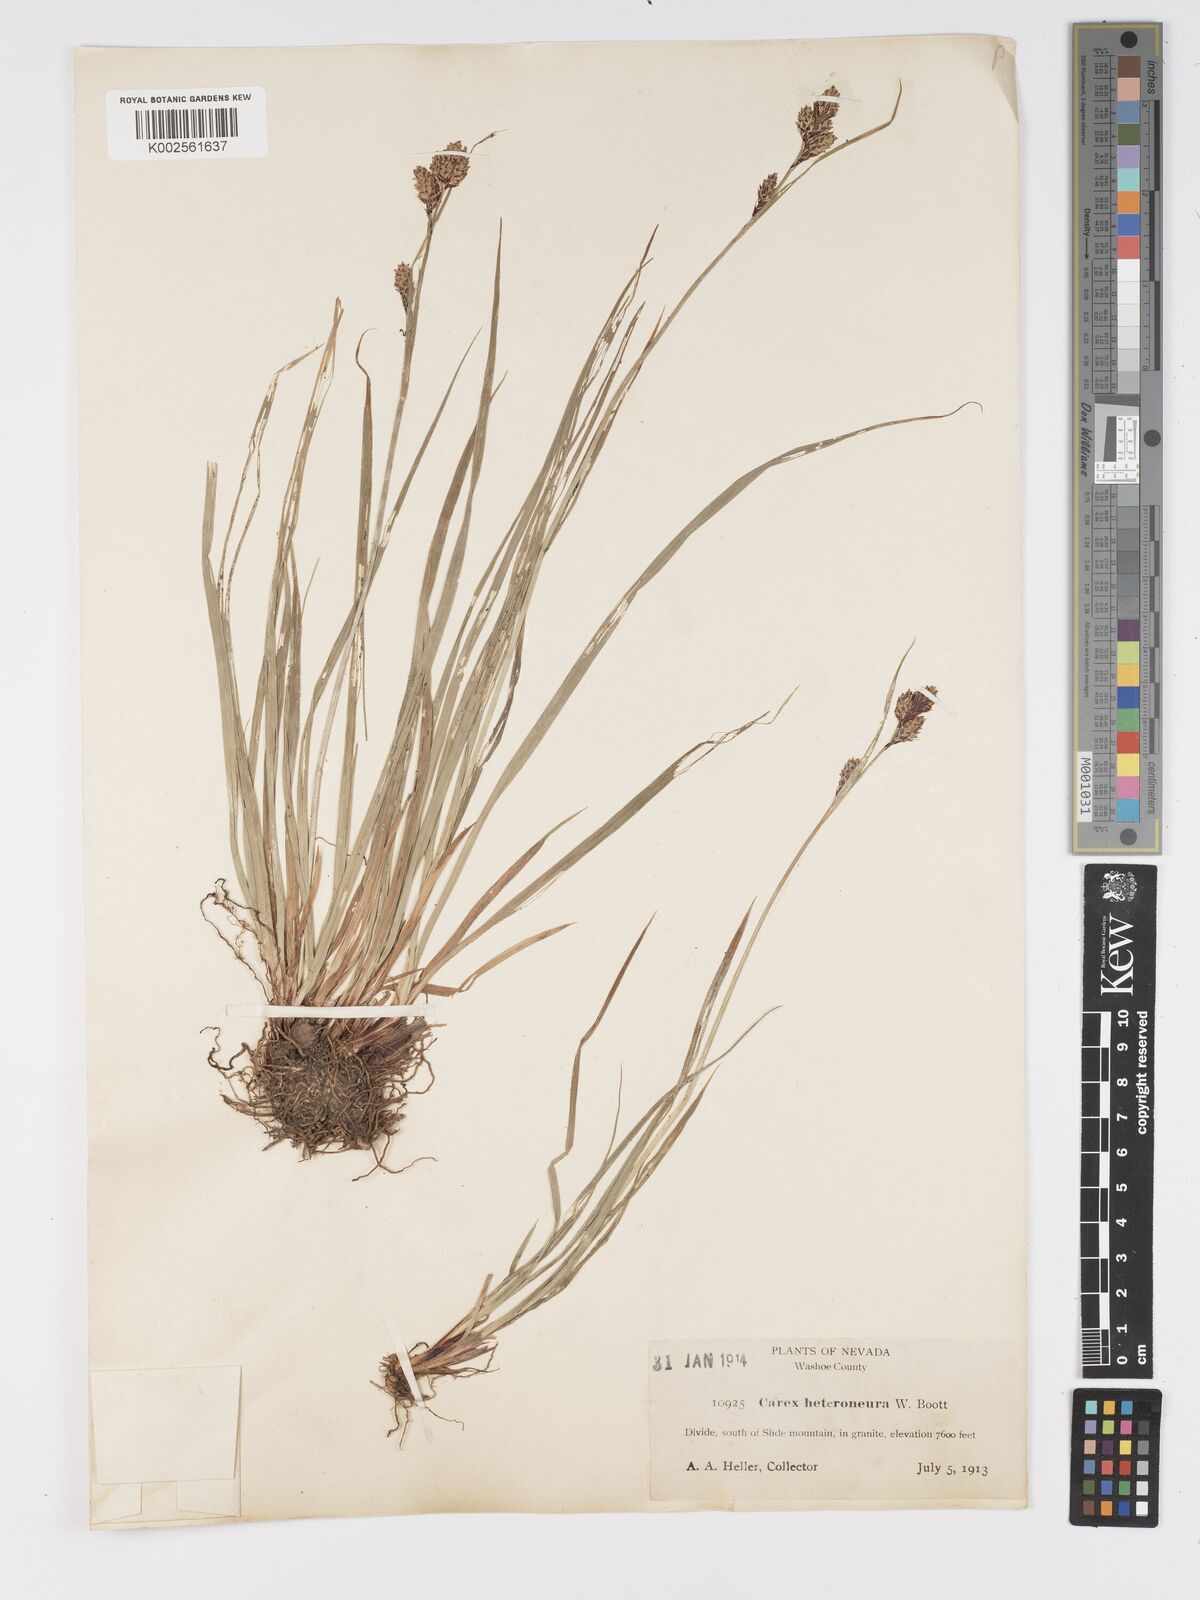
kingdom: Plantae
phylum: Tracheophyta
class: Liliopsida
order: Poales
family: Cyperaceae
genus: Carex
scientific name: Carex heteroneura
